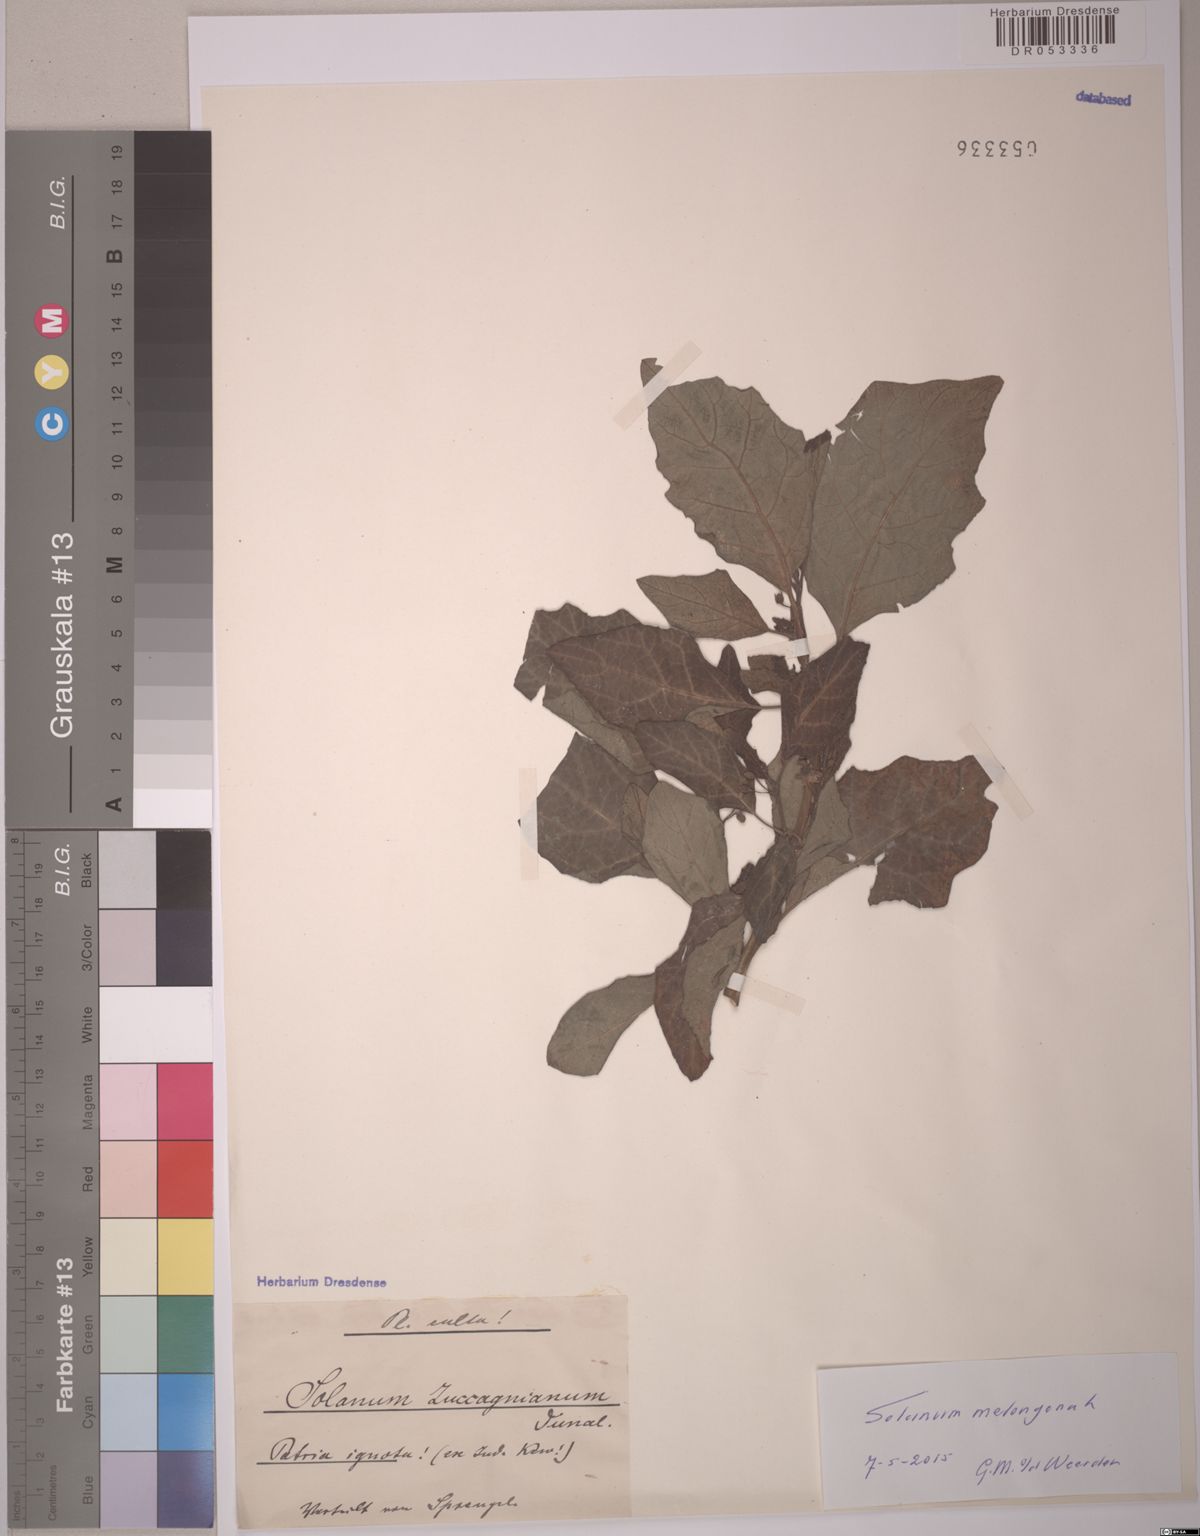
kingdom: Plantae
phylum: Tracheophyta
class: Magnoliopsida
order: Solanales
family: Solanaceae
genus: Solanum
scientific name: Solanum melongena
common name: Eggplant
